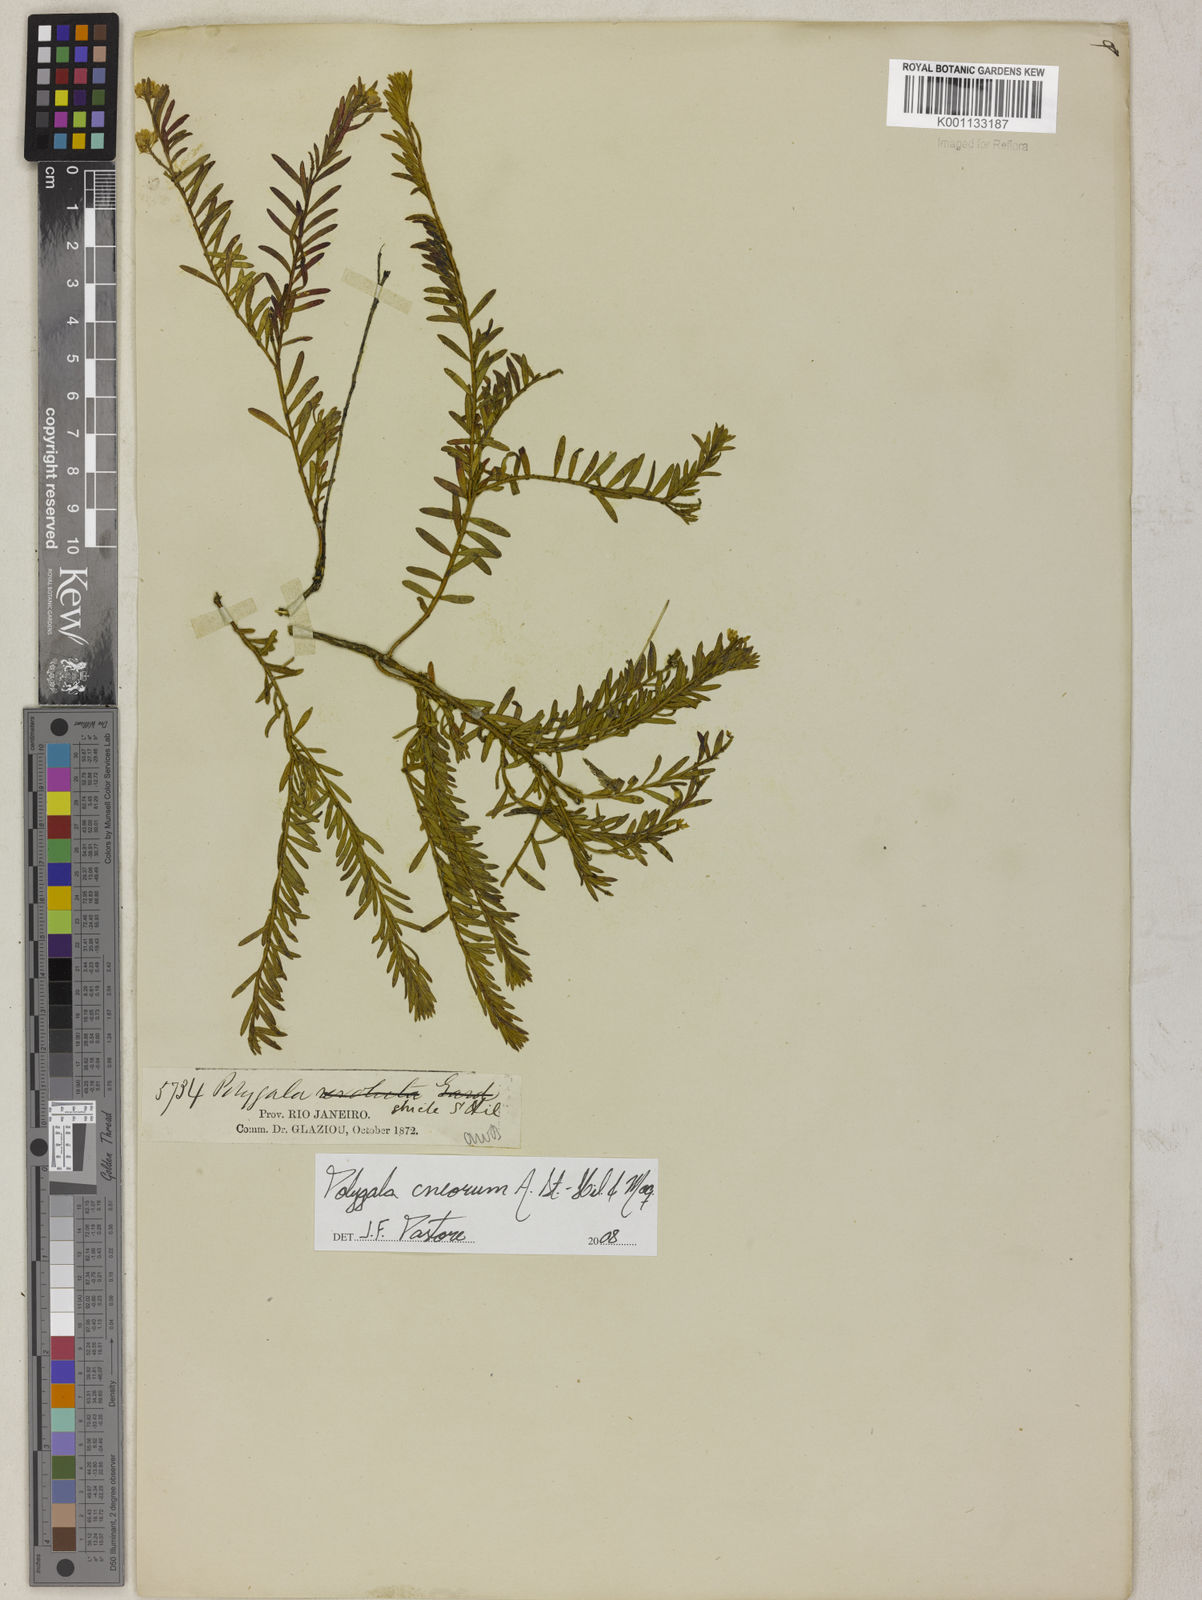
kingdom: Plantae
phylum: Tracheophyta
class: Magnoliopsida
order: Fabales
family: Polygalaceae
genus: Polygala
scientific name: Polygala cneorum
